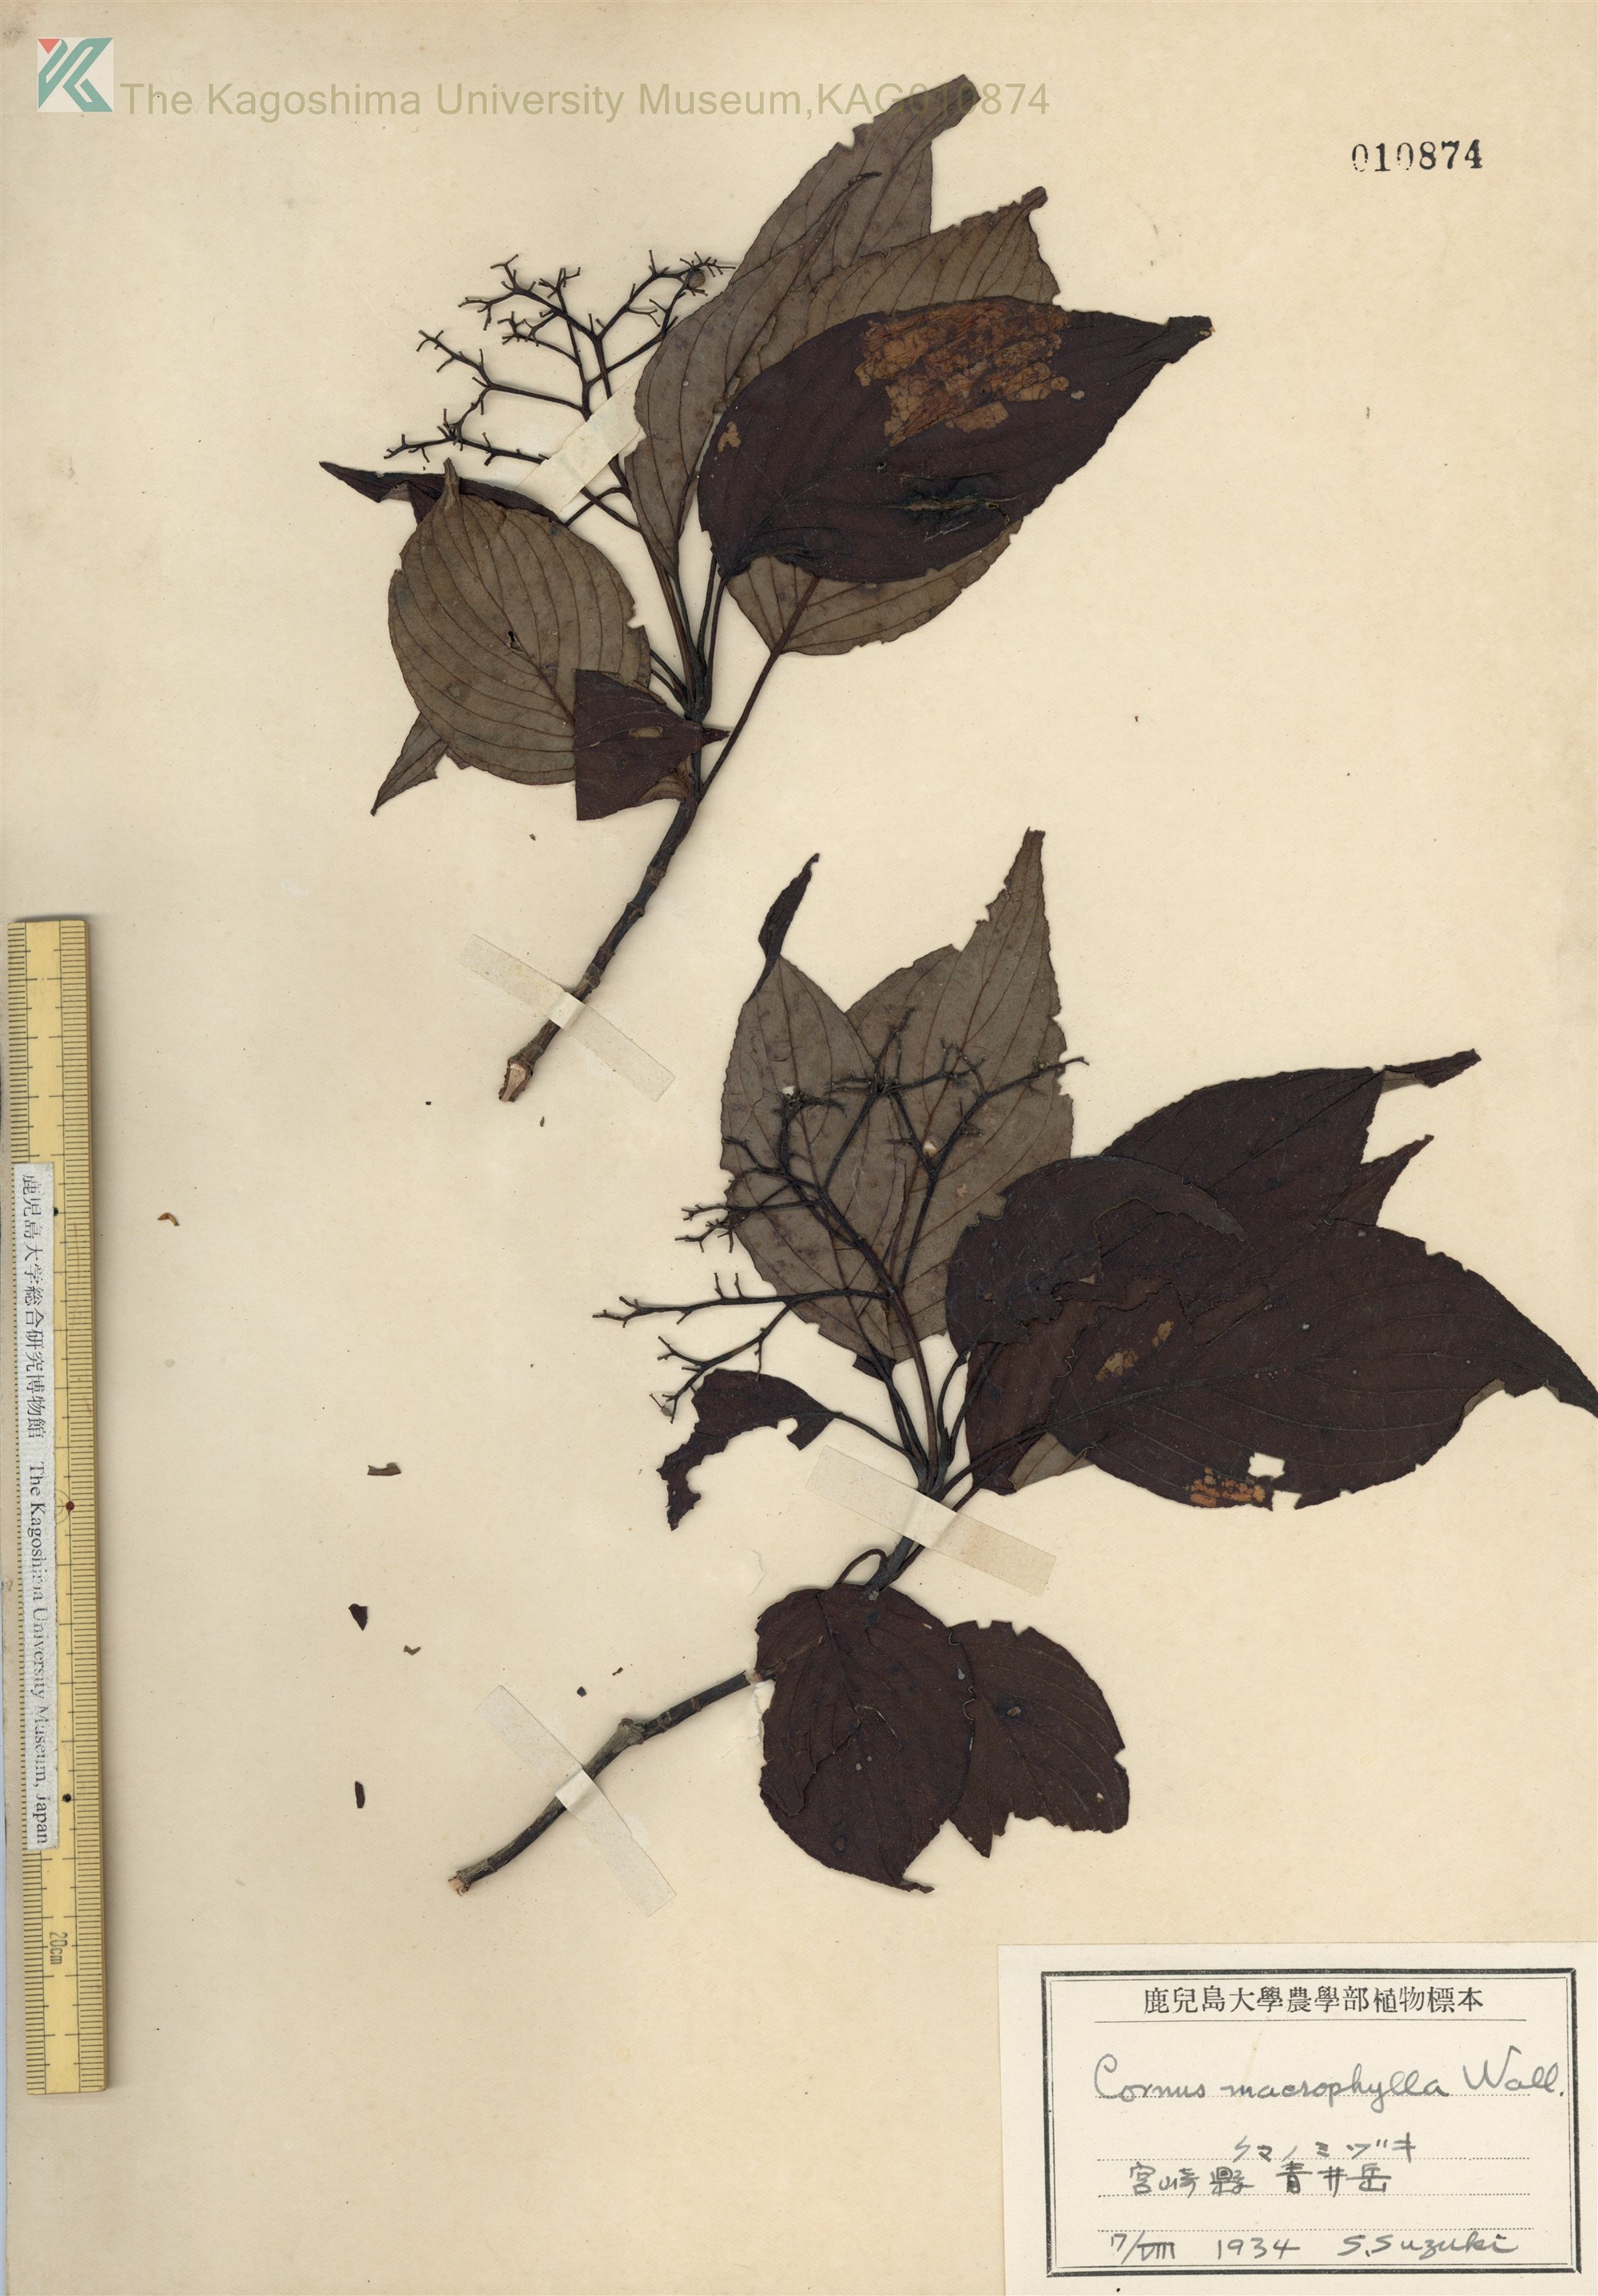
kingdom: Plantae
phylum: Tracheophyta
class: Magnoliopsida
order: Cornales
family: Cornaceae
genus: Cornus
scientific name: Cornus macrophylla
